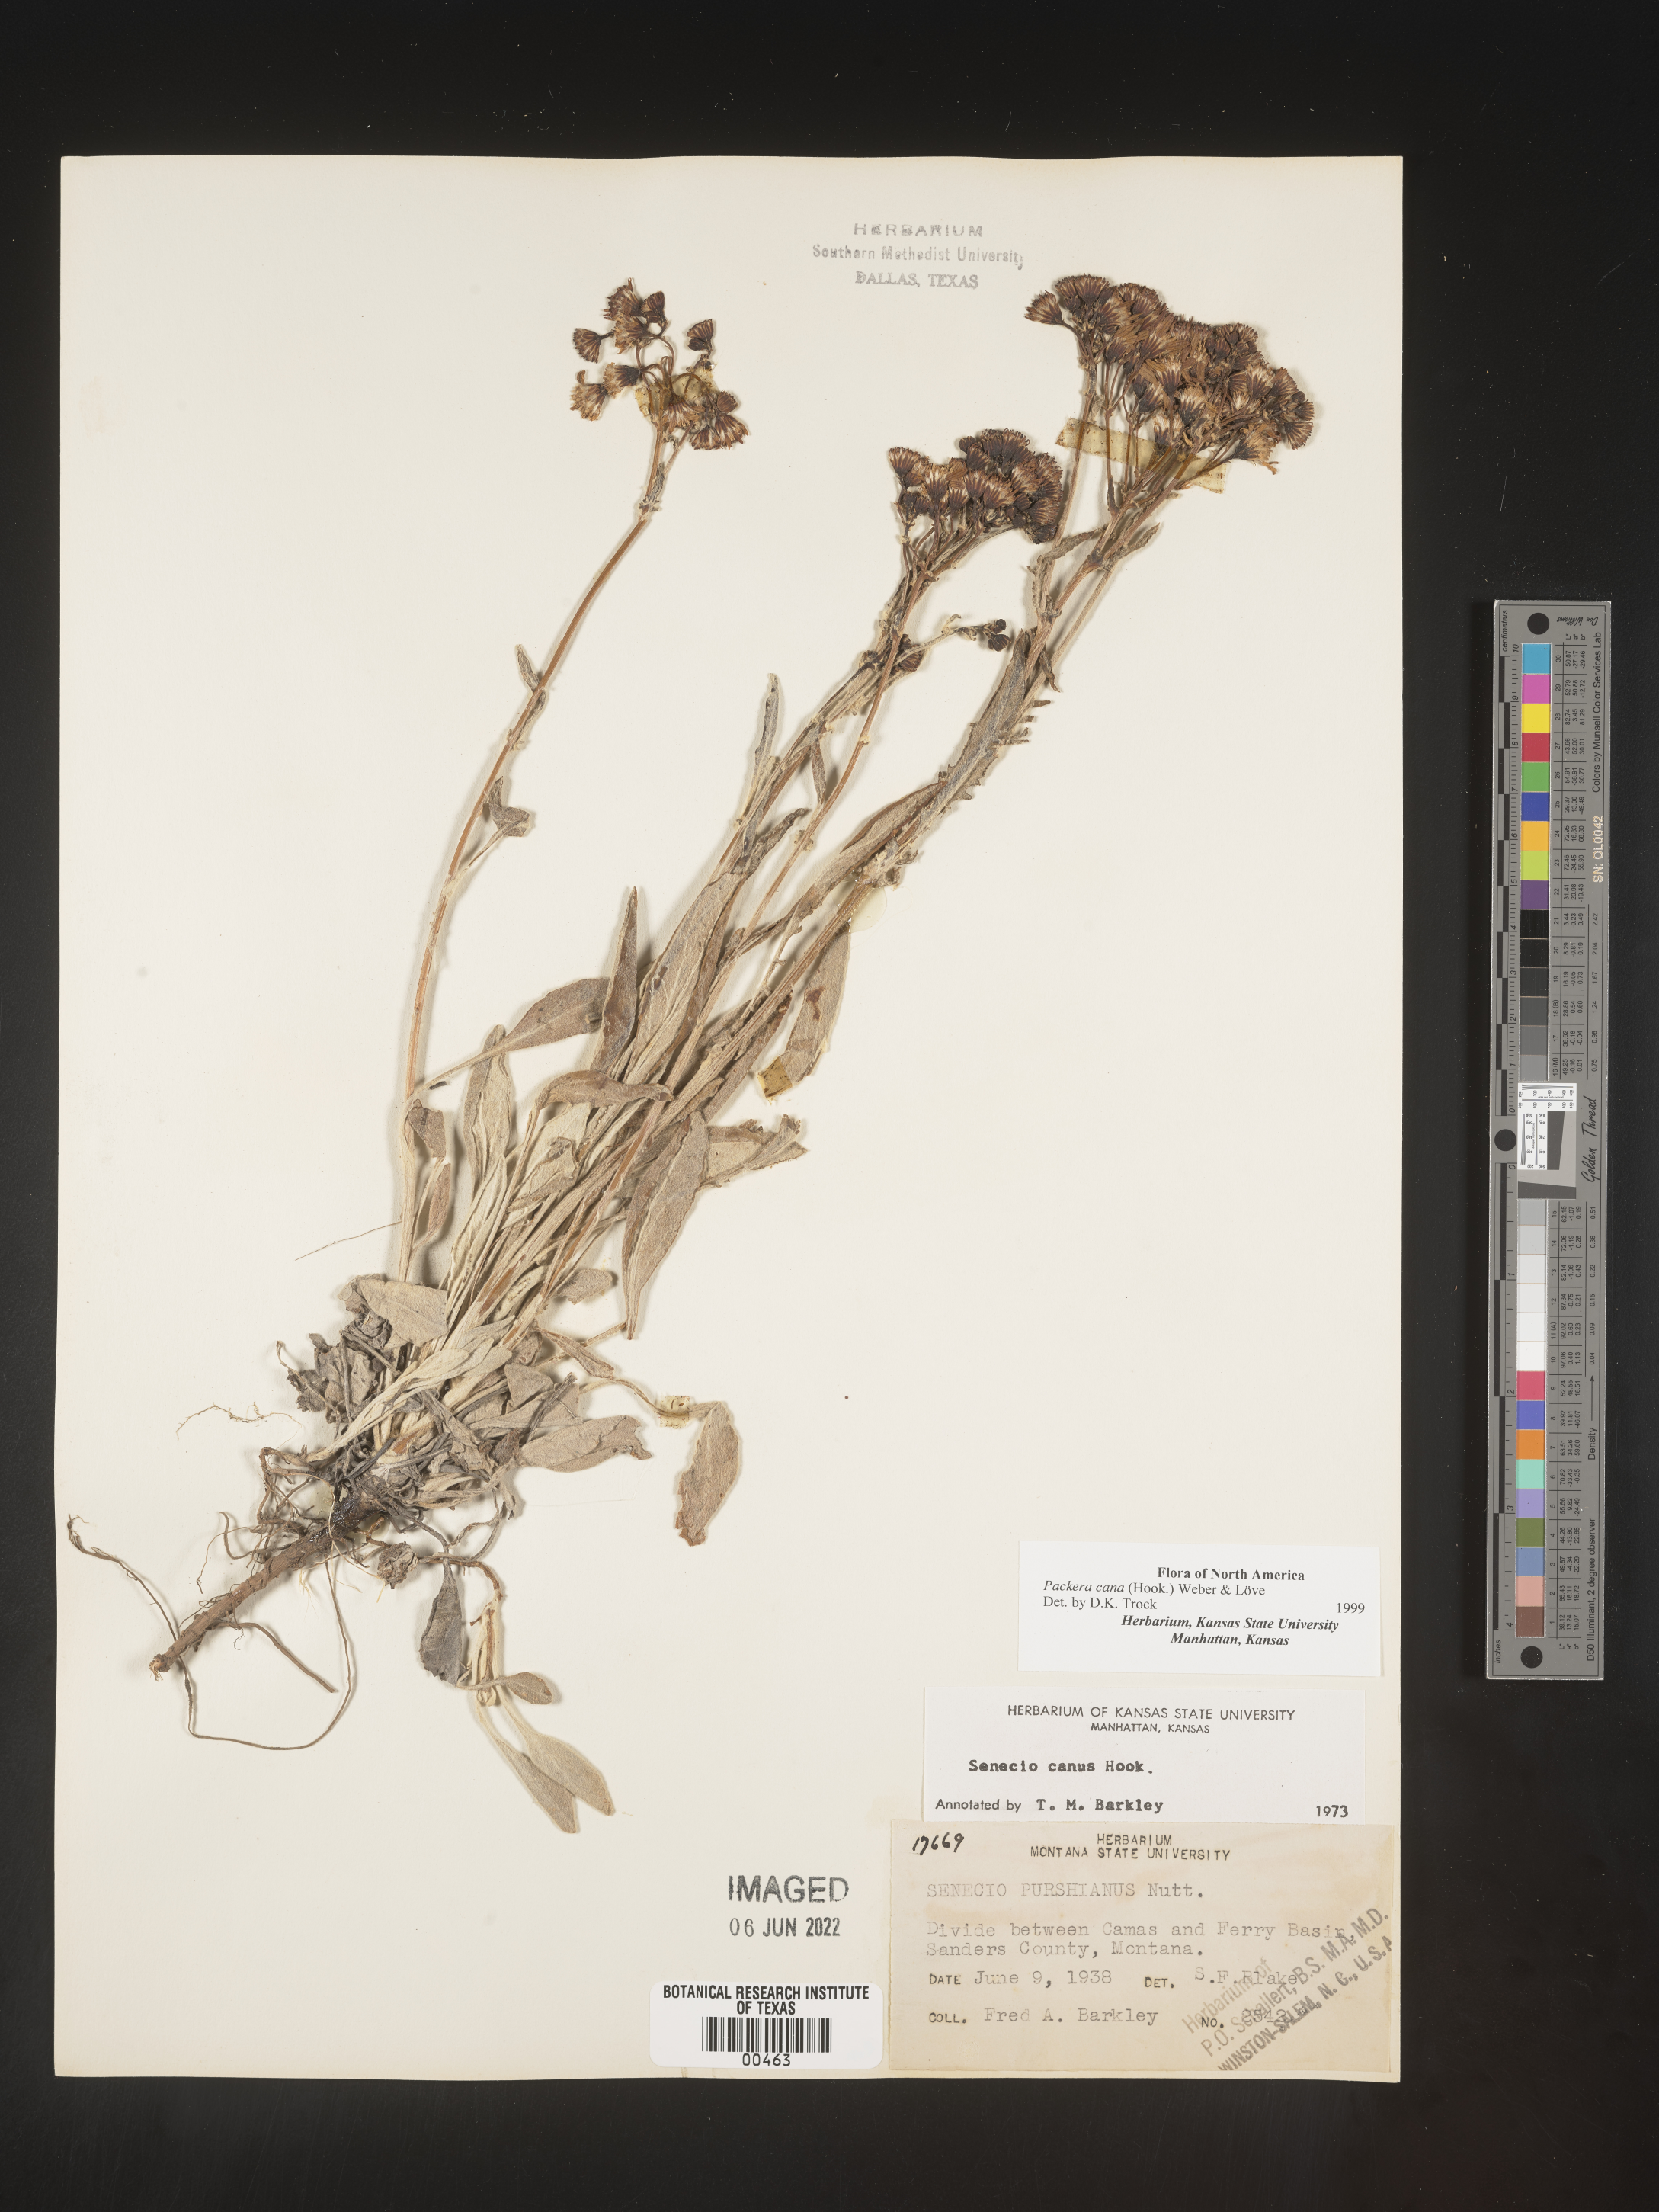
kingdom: Plantae
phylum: Tracheophyta
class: Magnoliopsida
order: Asterales
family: Asteraceae
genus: Packera
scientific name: Packera cana
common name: Woolly groundsel
